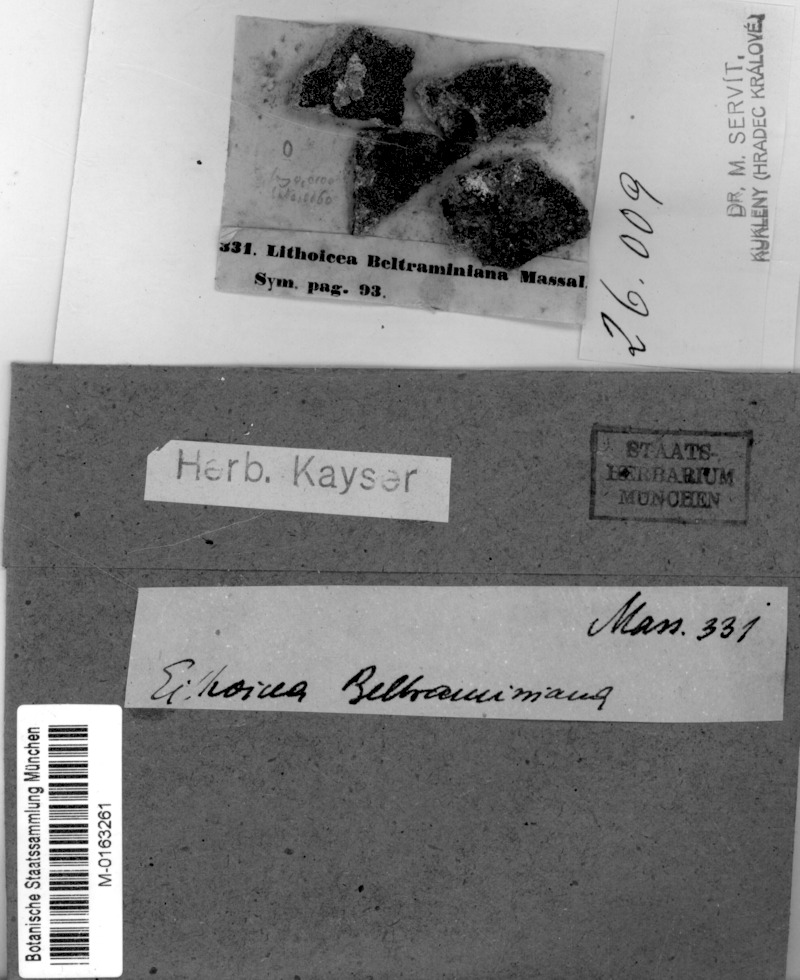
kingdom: Fungi
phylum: Ascomycota
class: Eurotiomycetes
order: Verrucariales
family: Verrucariaceae
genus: Verruculopsis
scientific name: Verruculopsis beltraminiana
